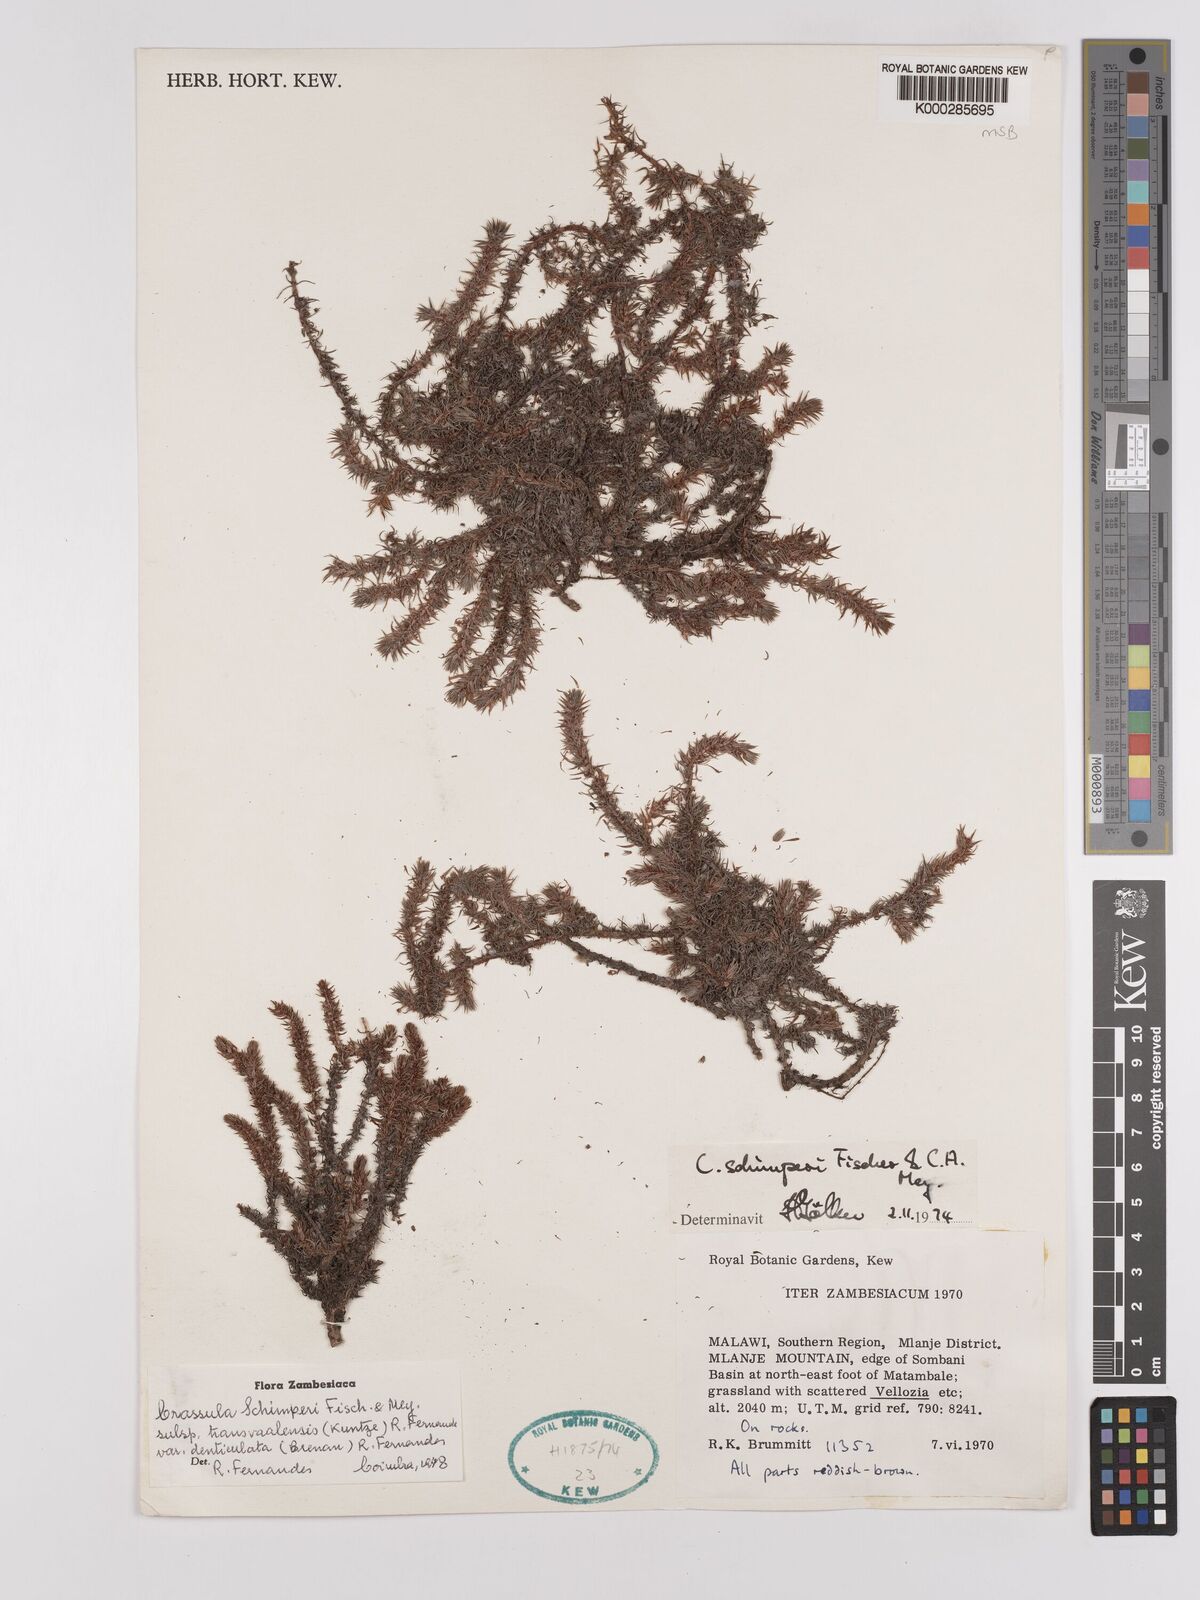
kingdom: Plantae
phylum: Tracheophyta
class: Magnoliopsida
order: Saxifragales
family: Crassulaceae
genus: Crassula
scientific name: Crassula lanceolata
